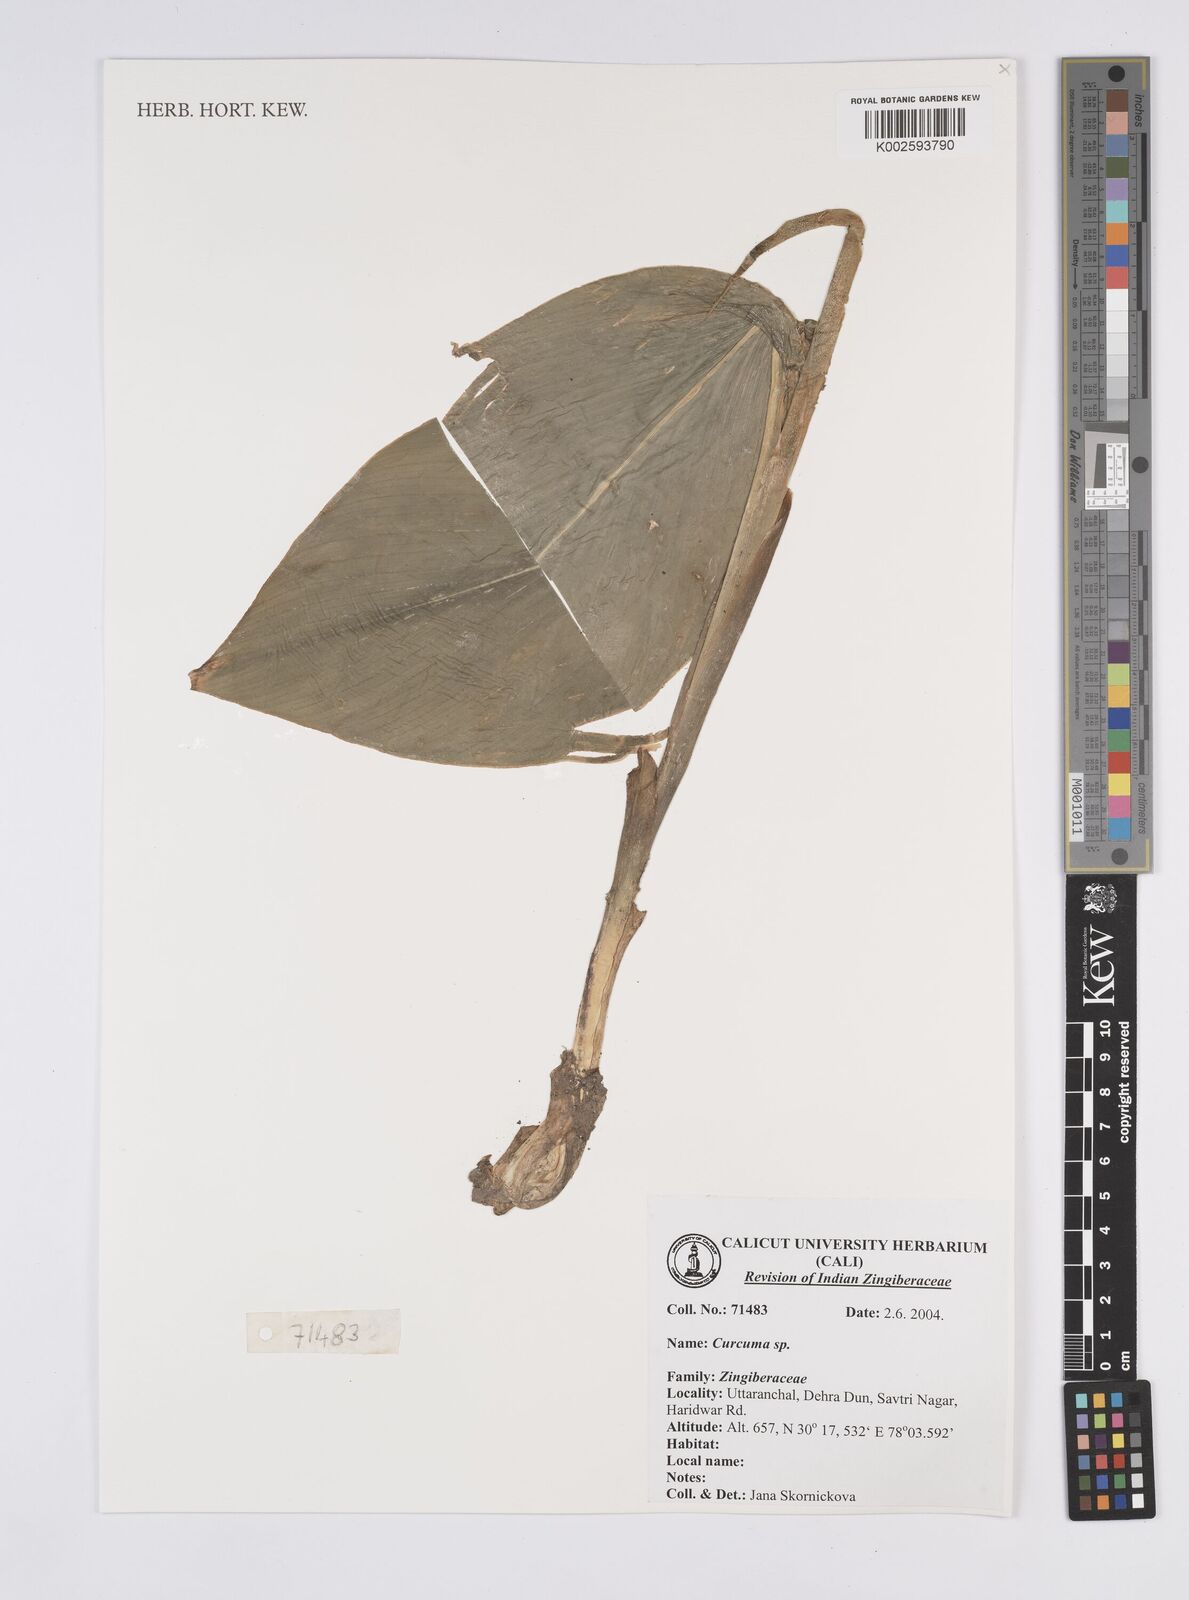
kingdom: Plantae
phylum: Tracheophyta
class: Liliopsida
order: Zingiberales
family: Zingiberaceae
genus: Curcuma
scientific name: Curcuma
